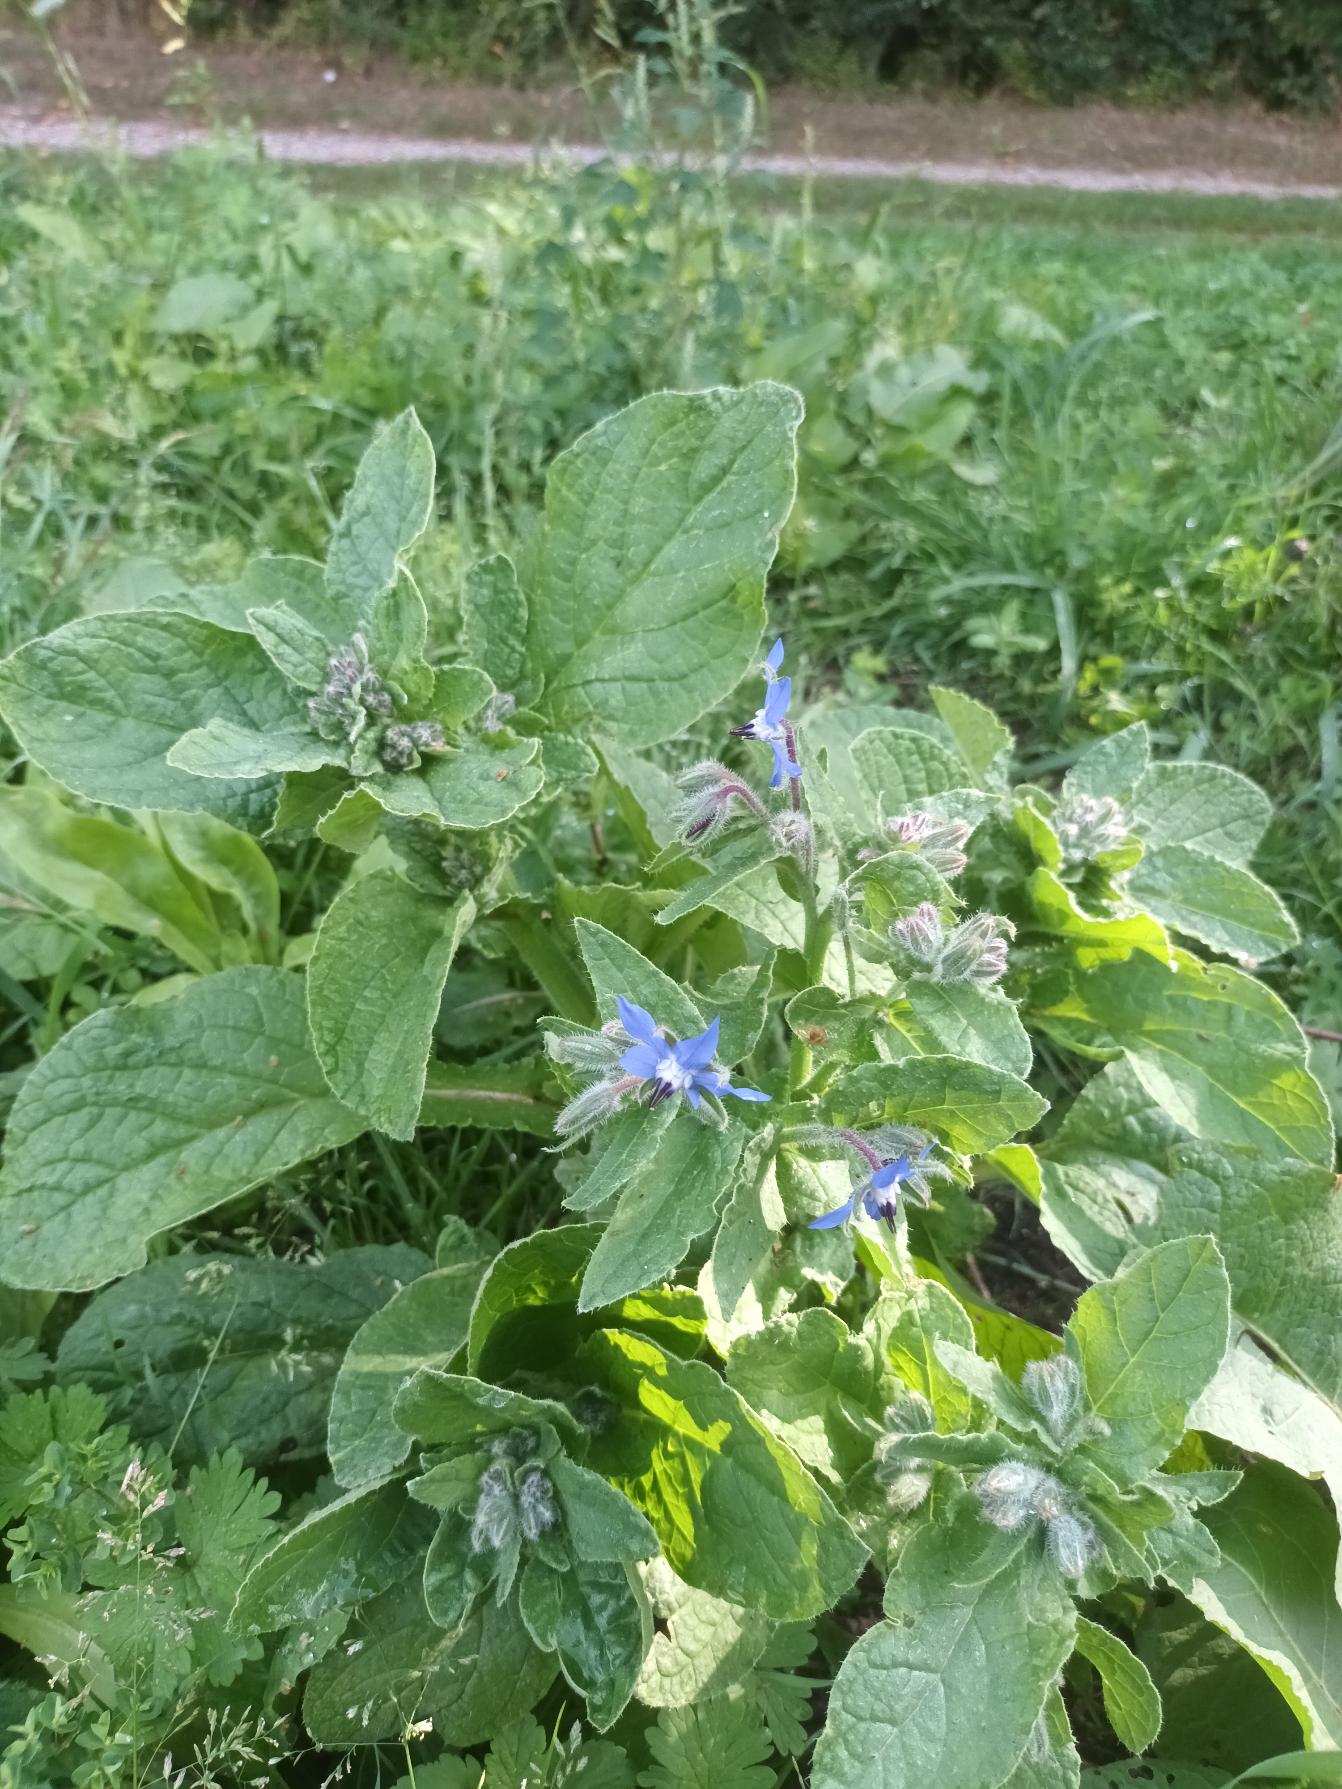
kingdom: Plantae
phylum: Tracheophyta
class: Magnoliopsida
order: Boraginales
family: Boraginaceae
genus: Borago
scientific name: Borago officinalis
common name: Hjulkrone
